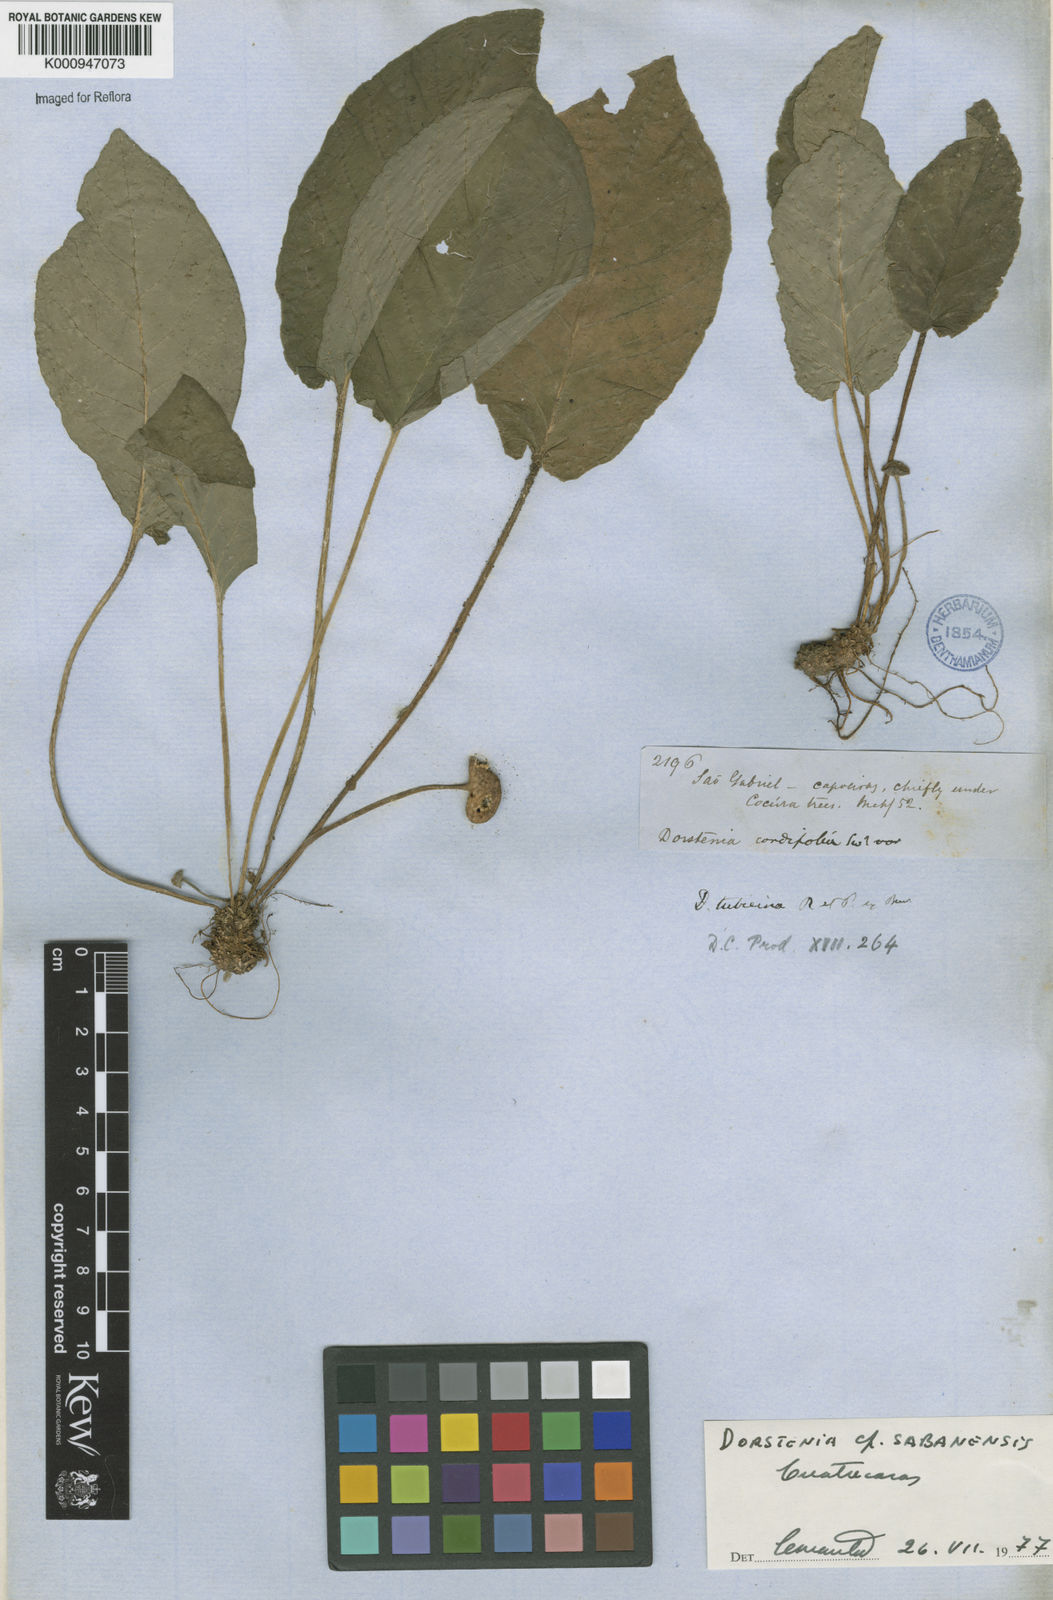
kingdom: Plantae
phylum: Tracheophyta
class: Magnoliopsida
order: Rosales
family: Moraceae
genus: Dorstenia
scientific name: Dorstenia brasiliensis
